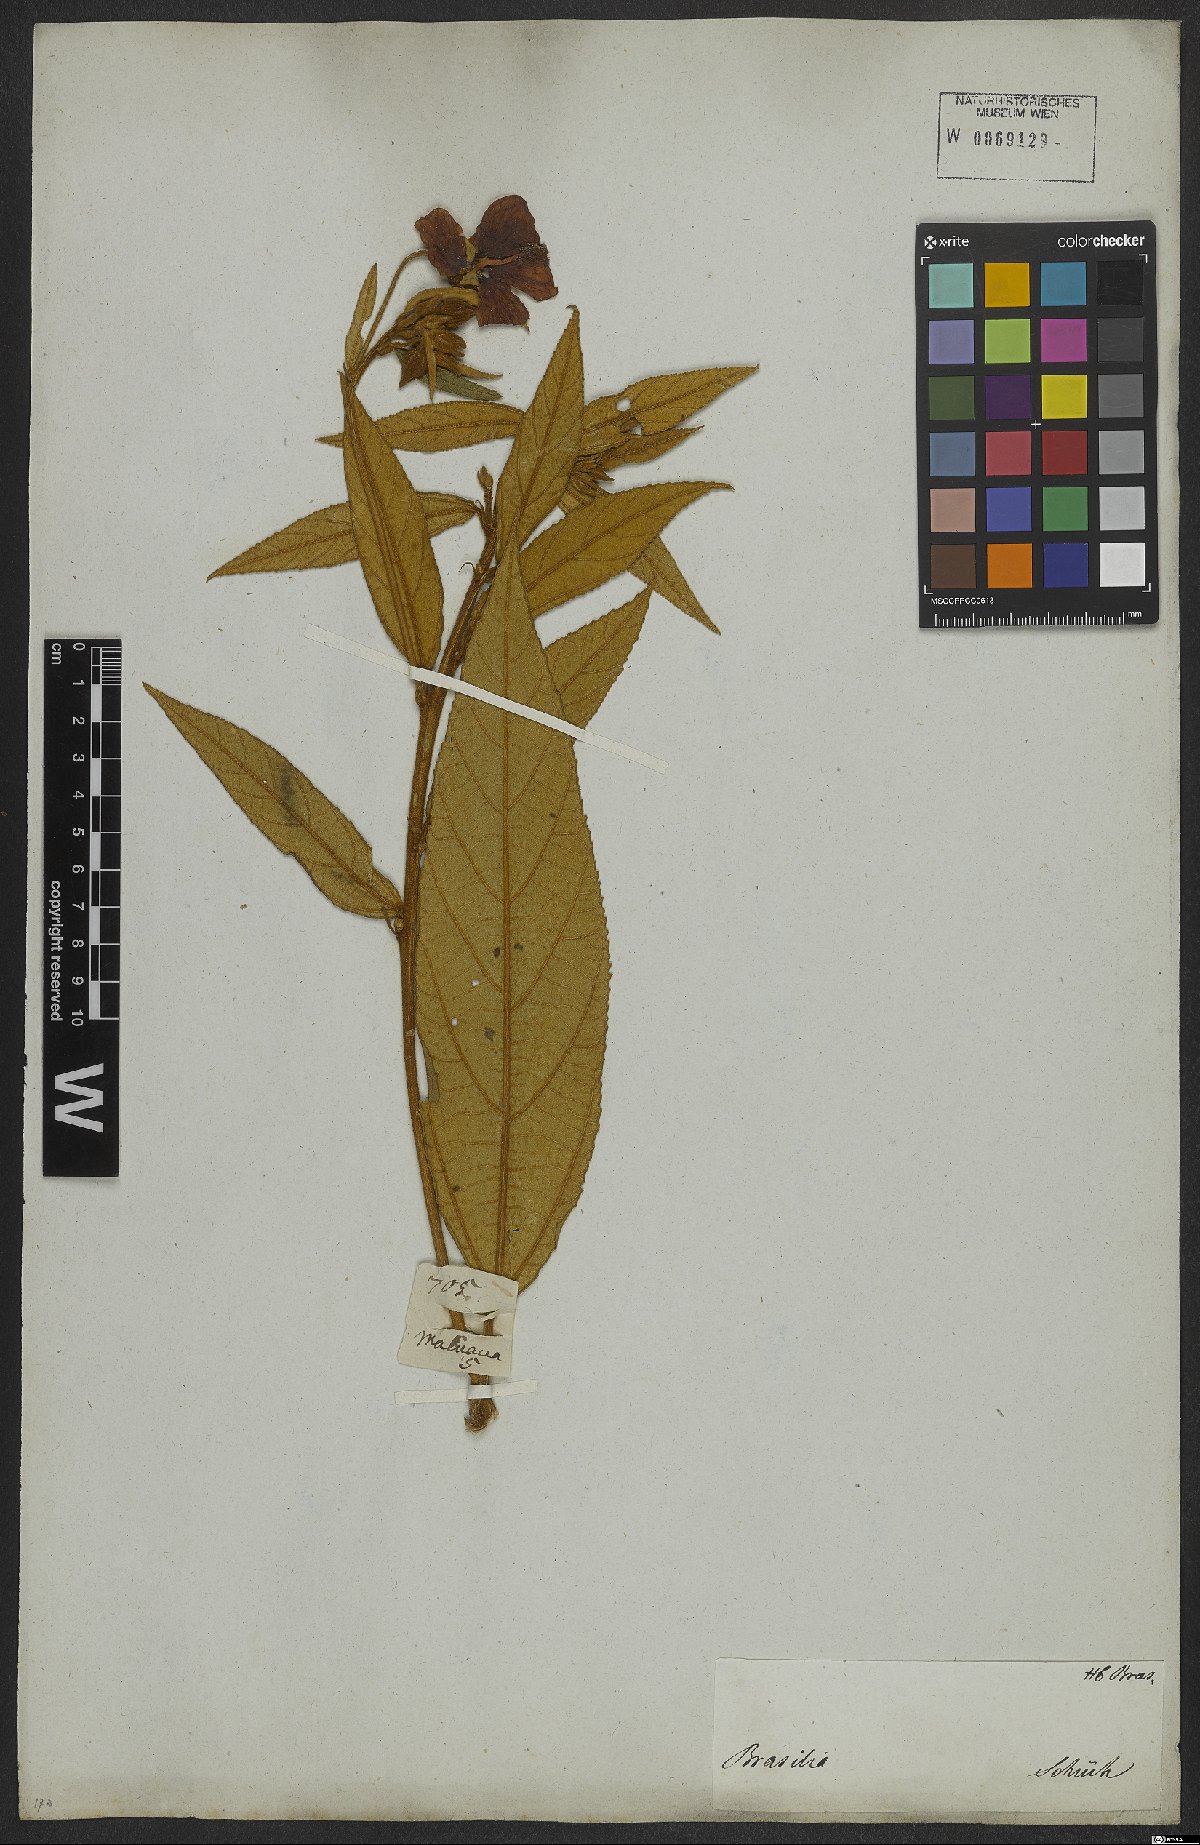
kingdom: Plantae
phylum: Tracheophyta
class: Magnoliopsida
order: Malvales
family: Malvaceae
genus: Callianthe
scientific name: Callianthe rufinerva
